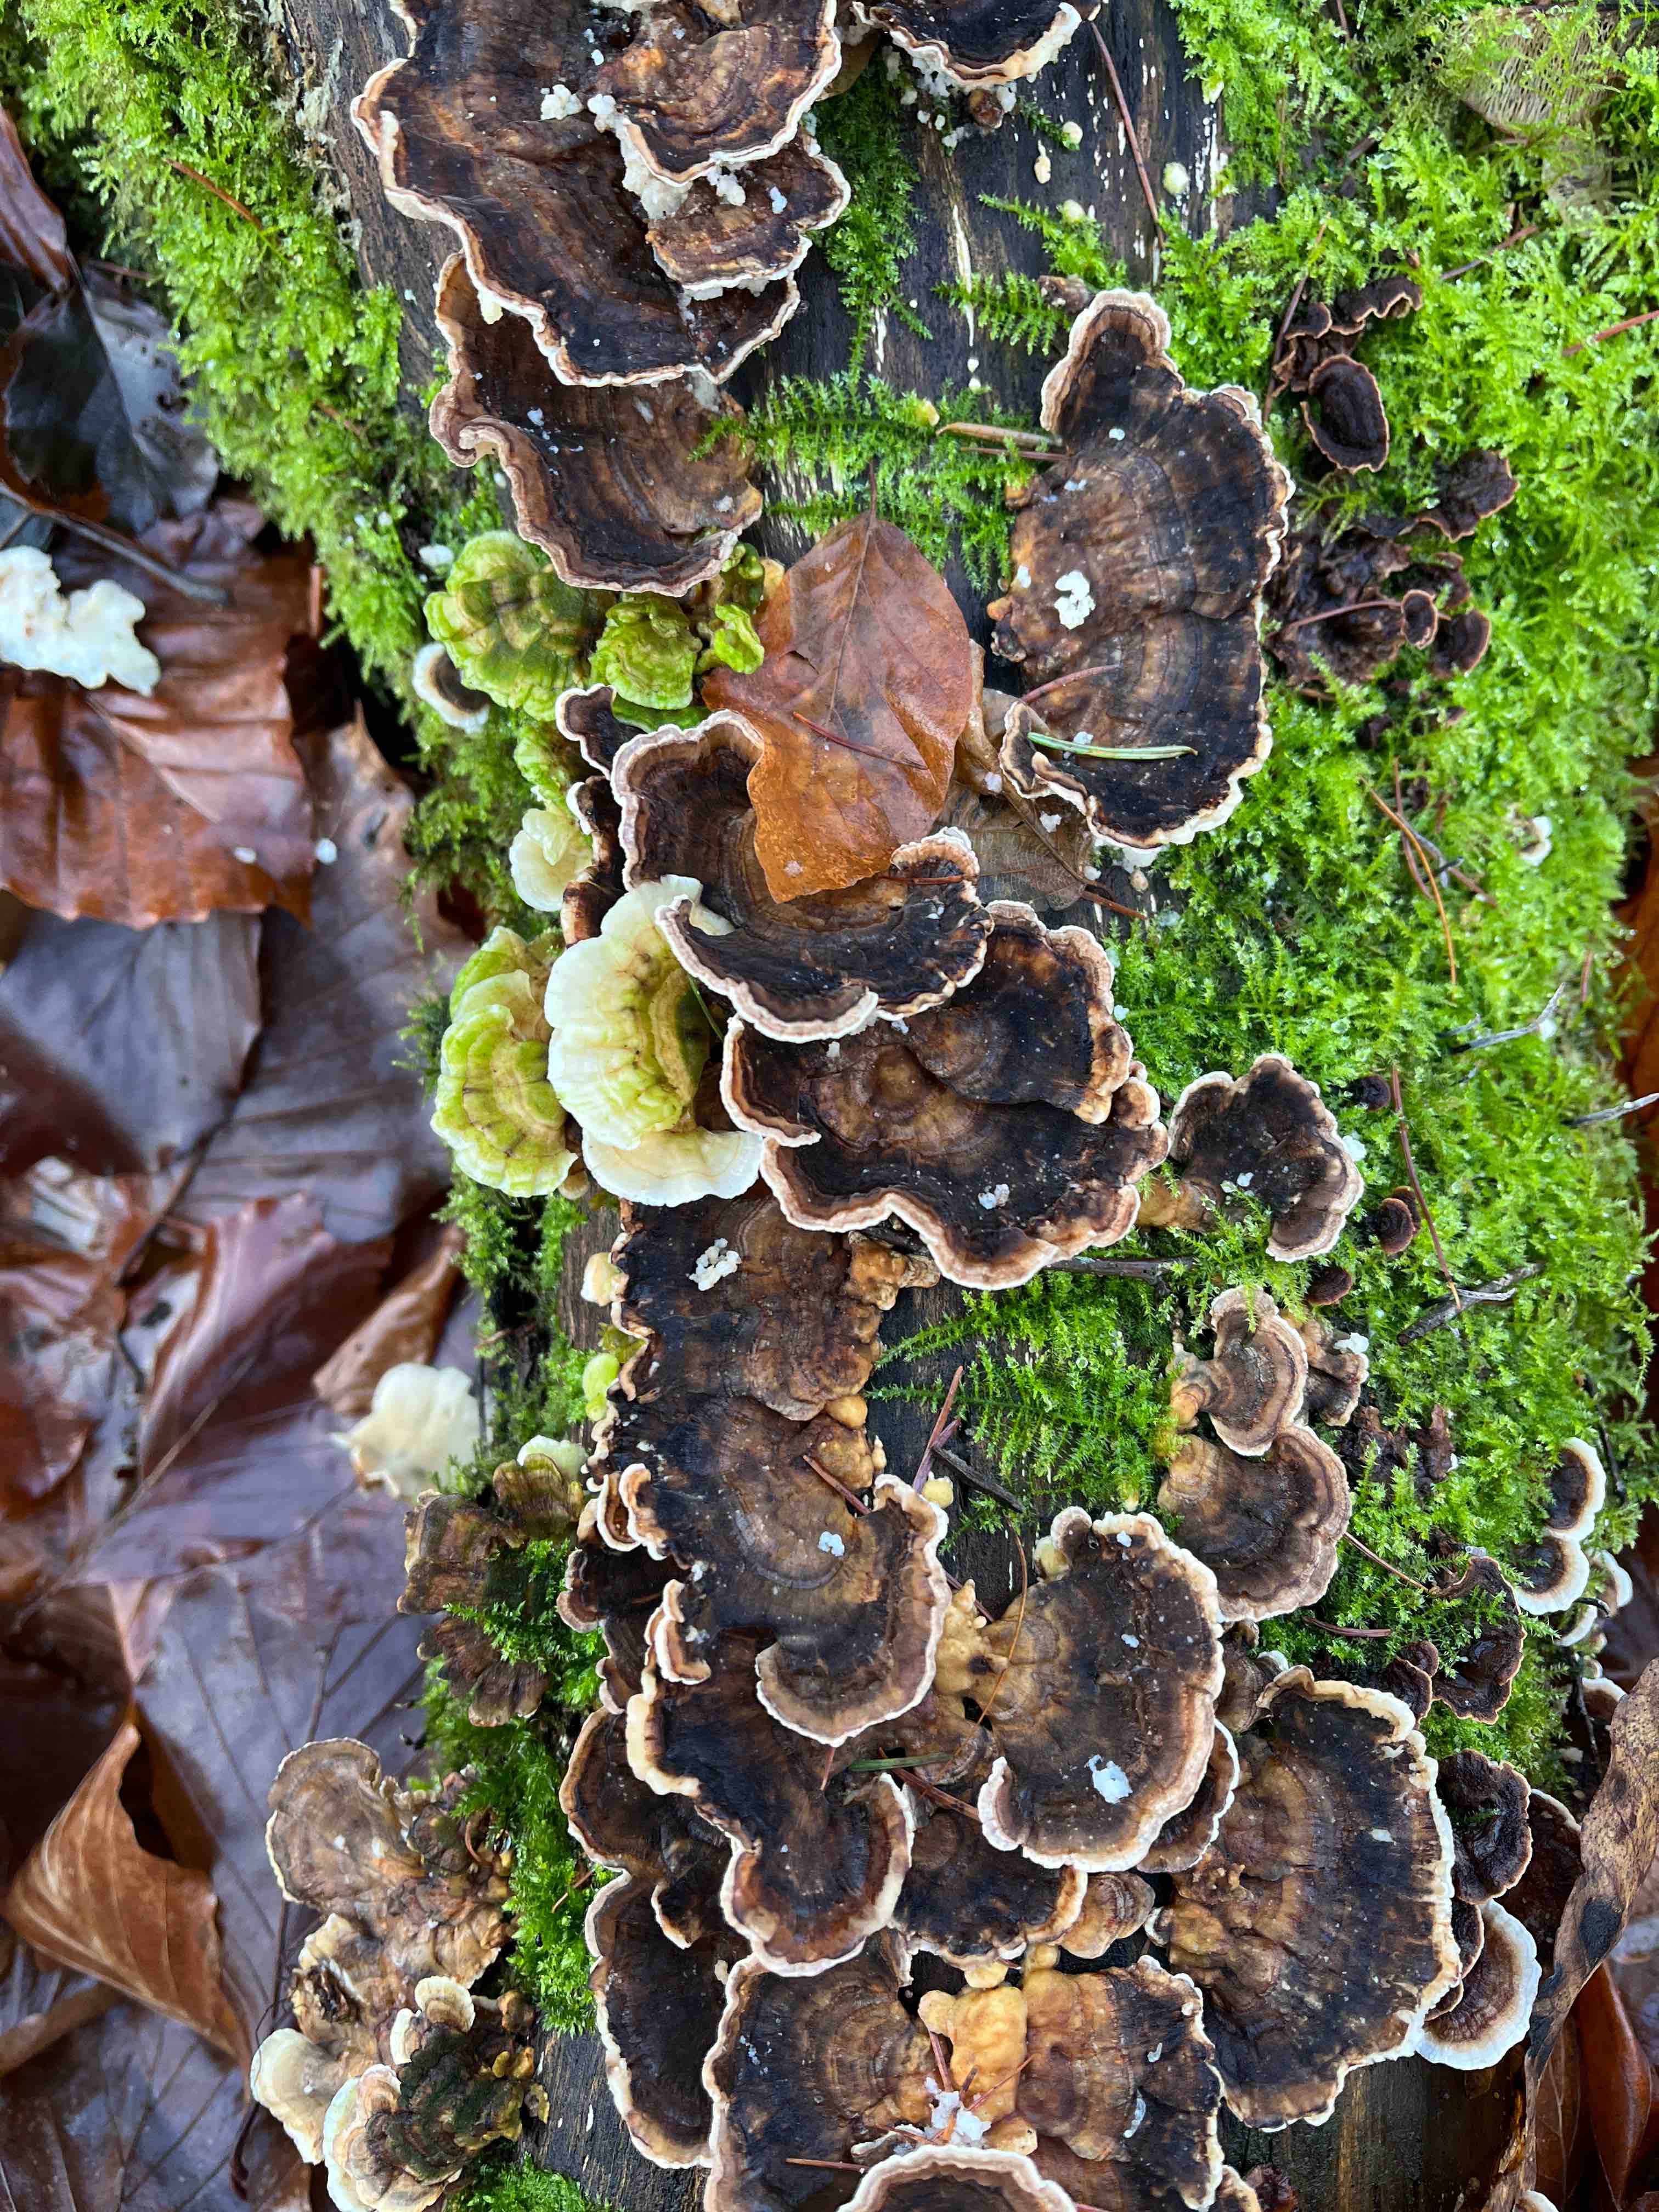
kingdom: Fungi
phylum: Basidiomycota
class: Agaricomycetes
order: Polyporales
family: Polyporaceae
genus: Trametes
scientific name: Trametes versicolor
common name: broget læderporesvamp
